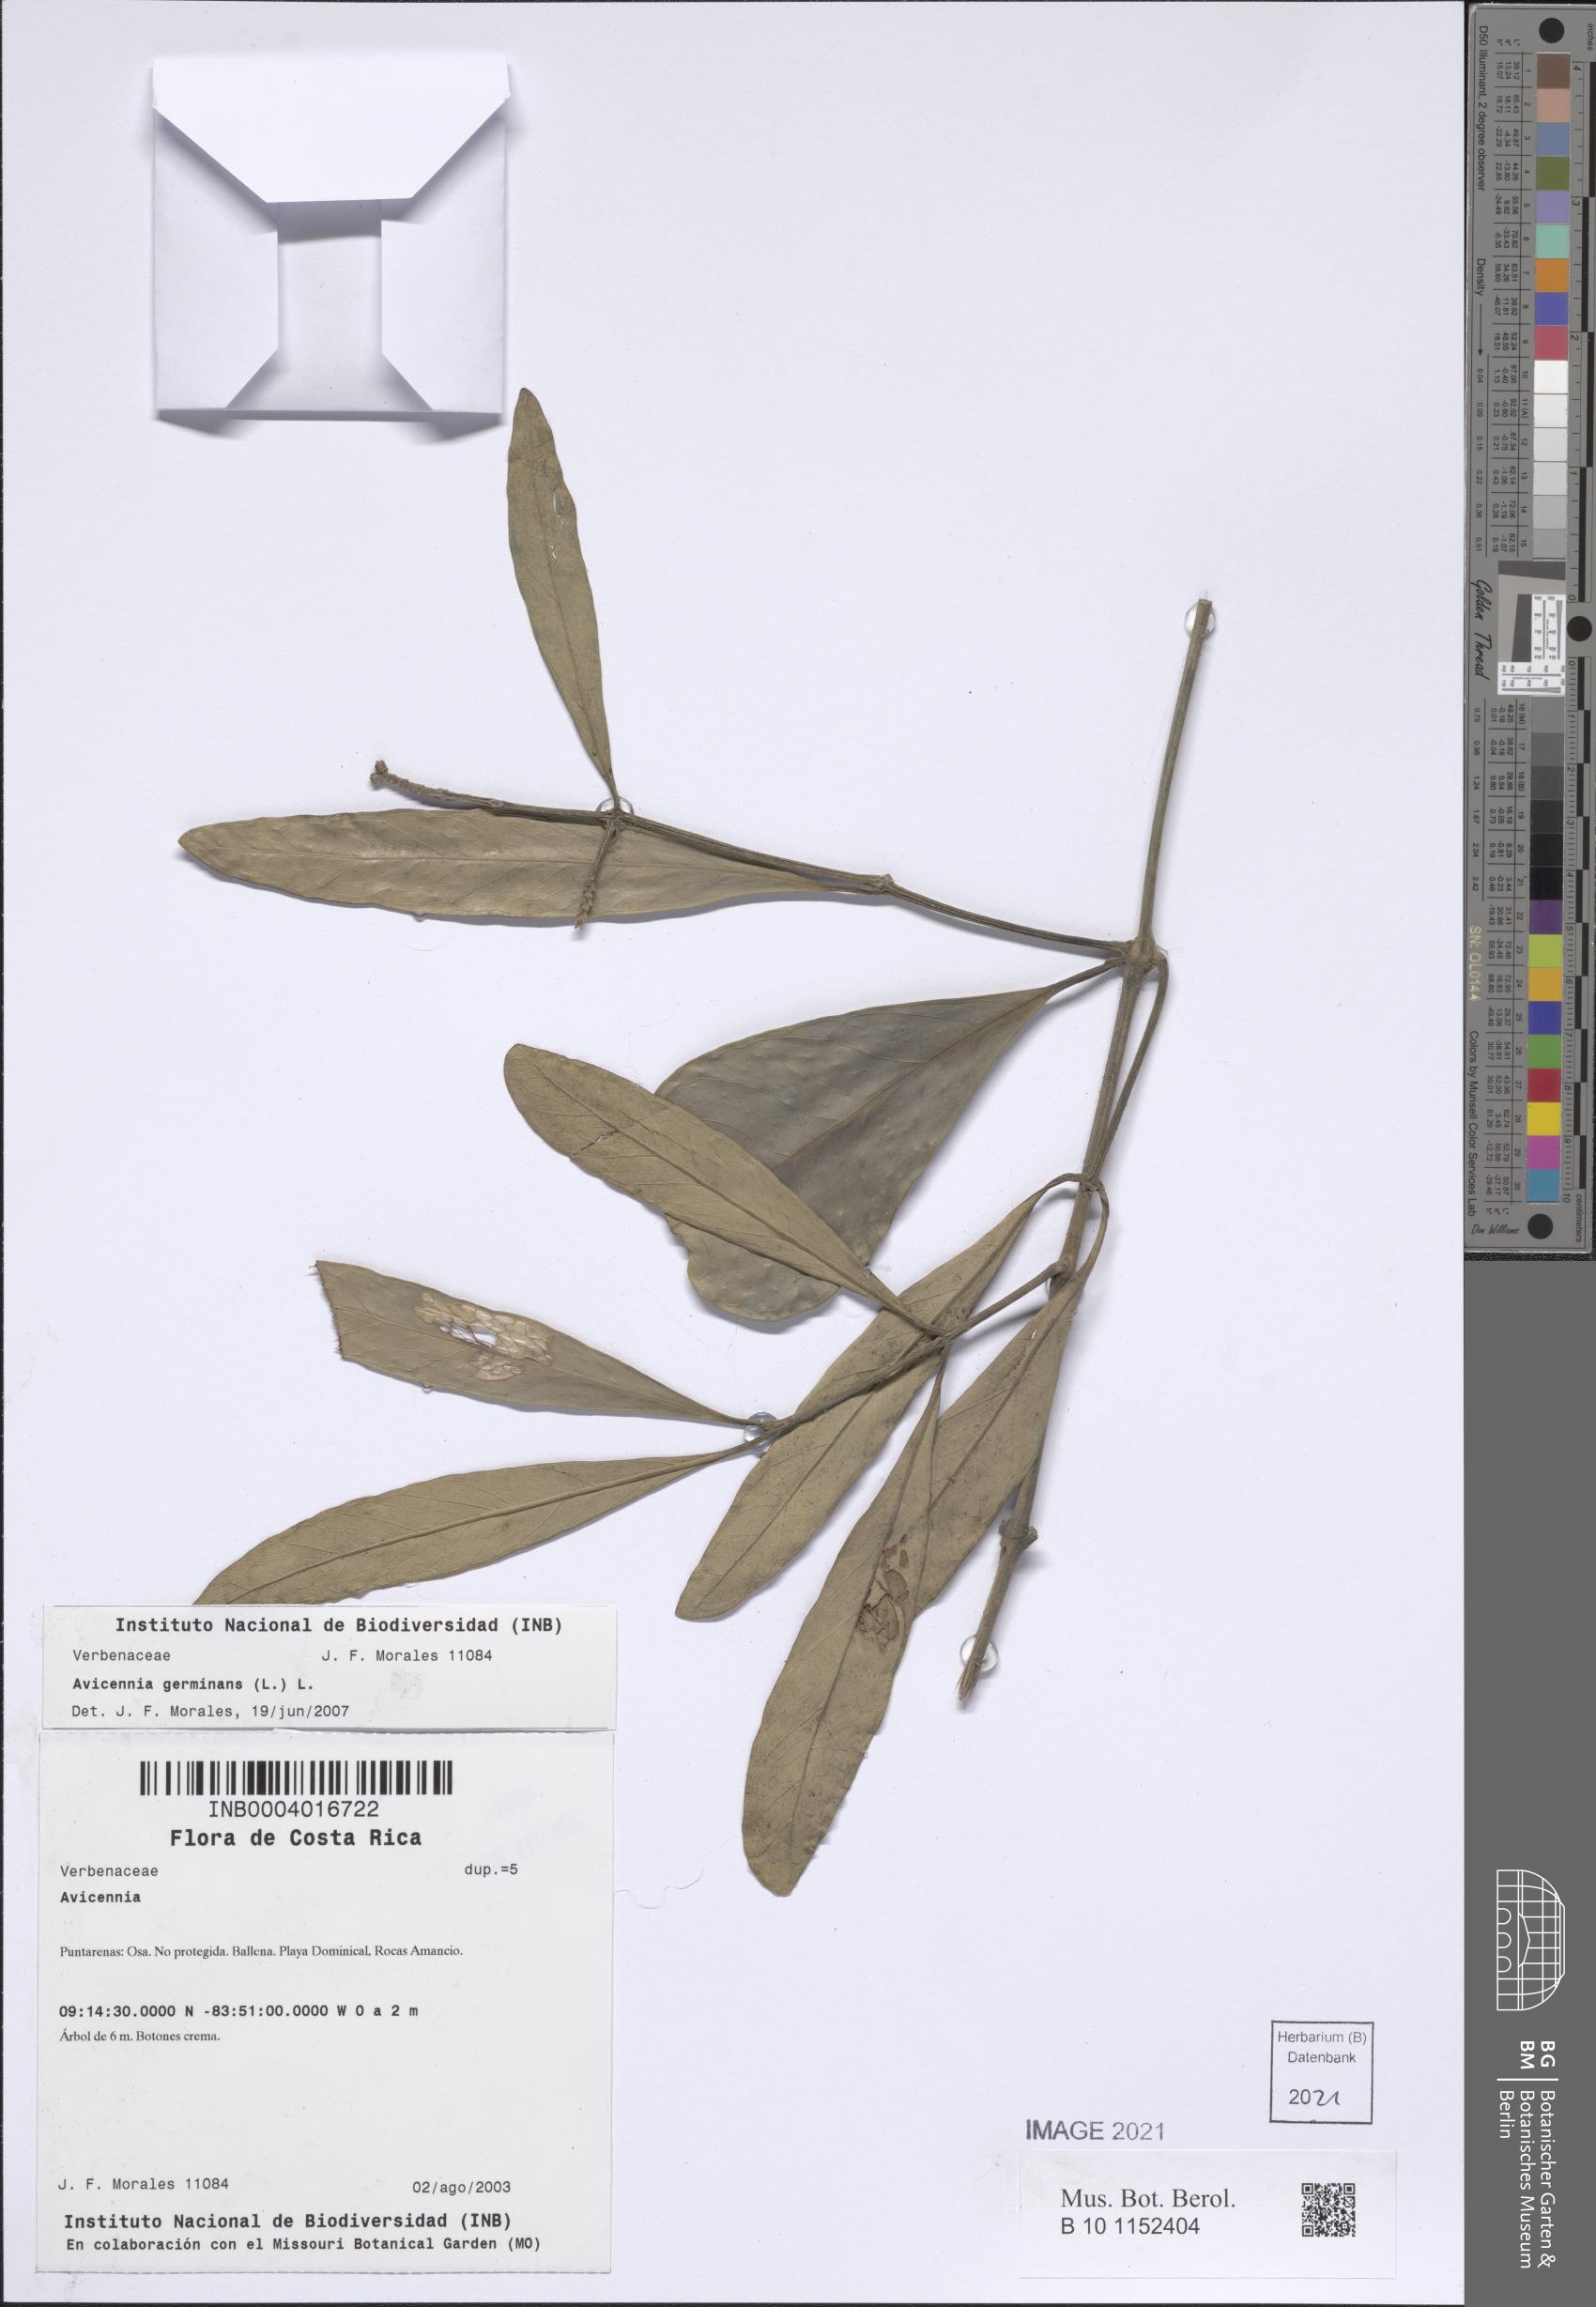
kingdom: Plantae
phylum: Tracheophyta
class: Magnoliopsida
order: Lamiales
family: Acanthaceae
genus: Avicennia
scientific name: Avicennia germinans
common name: Black mangrove
